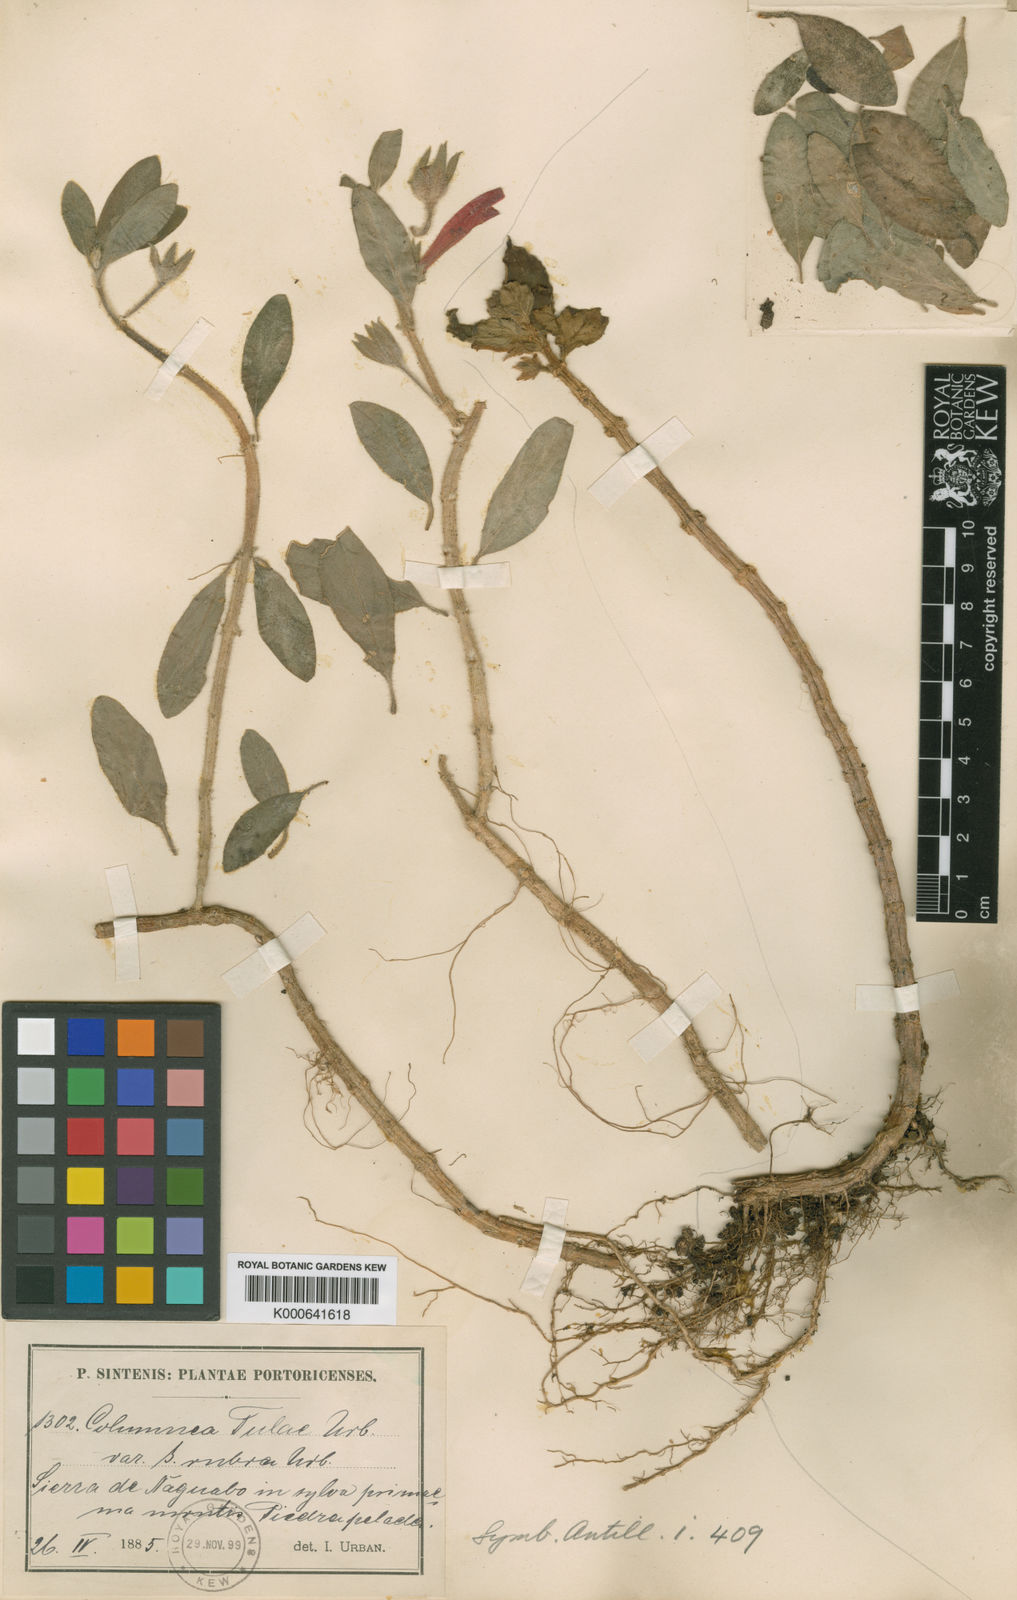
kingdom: Plantae
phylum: Tracheophyta
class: Magnoliopsida
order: Lamiales
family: Gesneriaceae
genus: Columnea
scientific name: Columnea scandens
